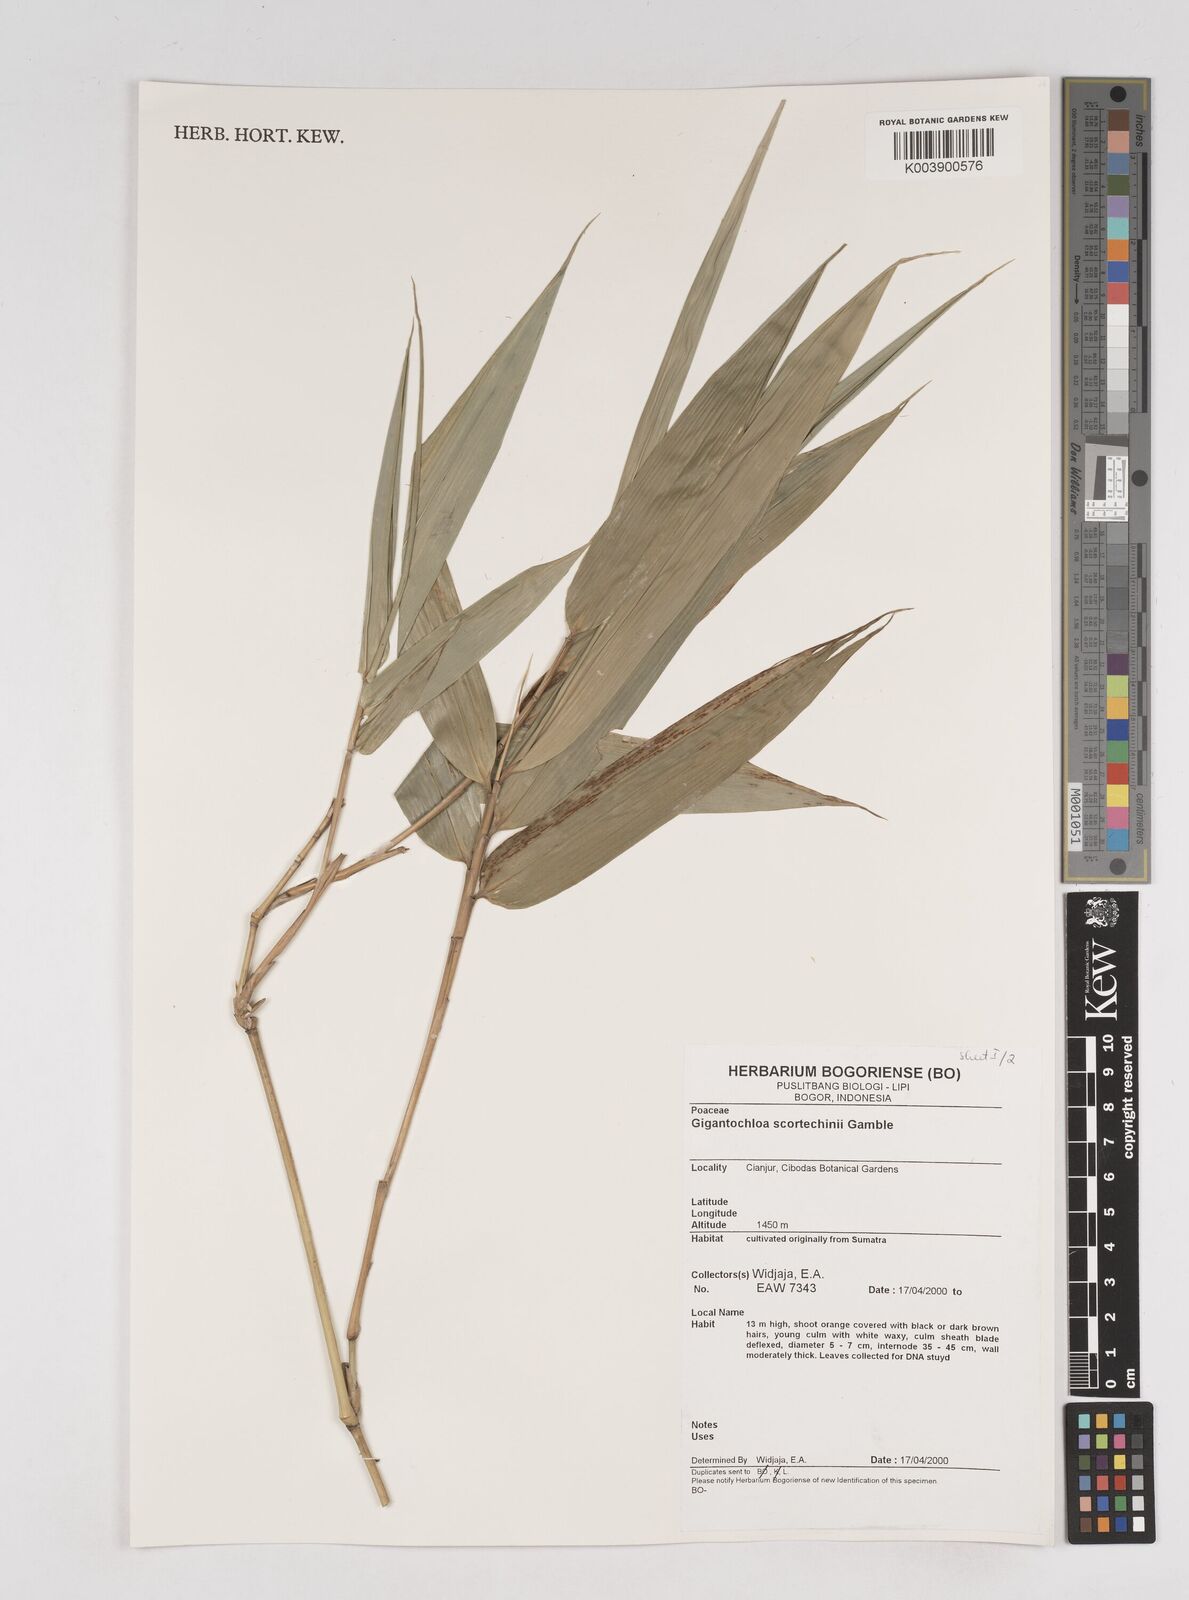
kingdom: Plantae
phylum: Tracheophyta
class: Liliopsida
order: Poales
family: Poaceae
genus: Gigantochloa
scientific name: Gigantochloa scortechinii
